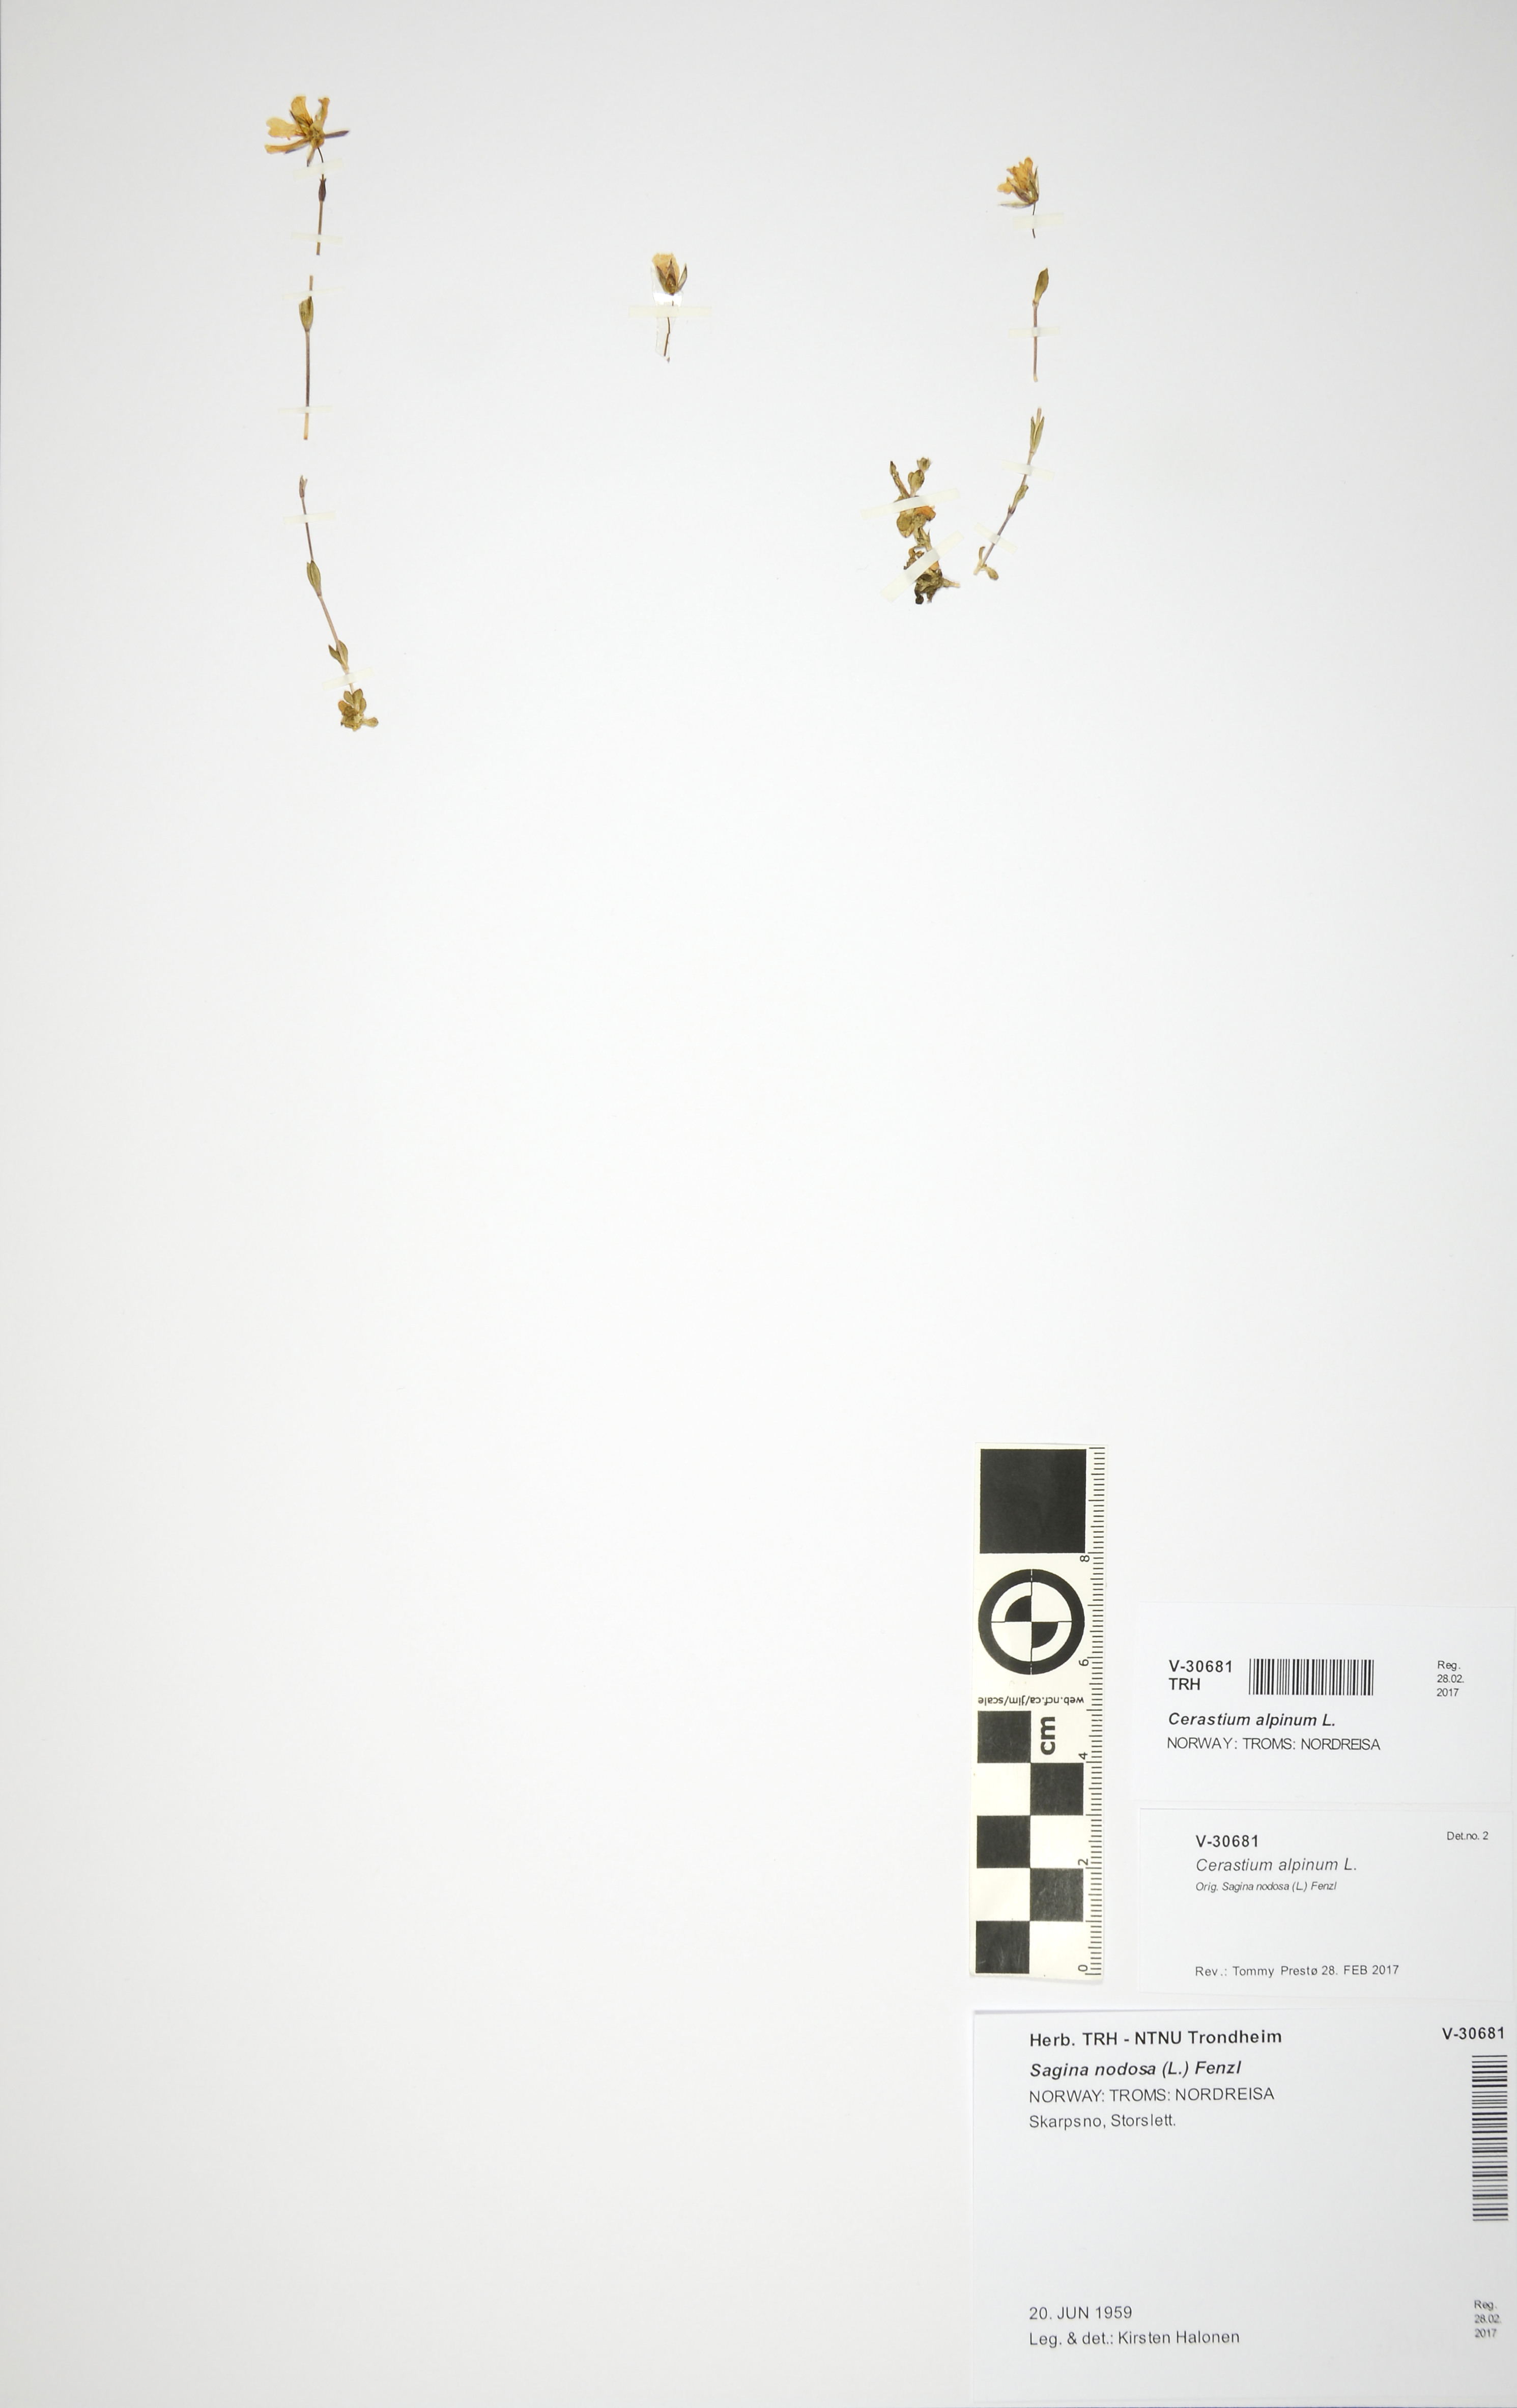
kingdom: Plantae
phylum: Tracheophyta
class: Magnoliopsida
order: Caryophyllales
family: Caryophyllaceae
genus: Cerastium
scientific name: Cerastium alpinum
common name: Alpine mouse-ear
